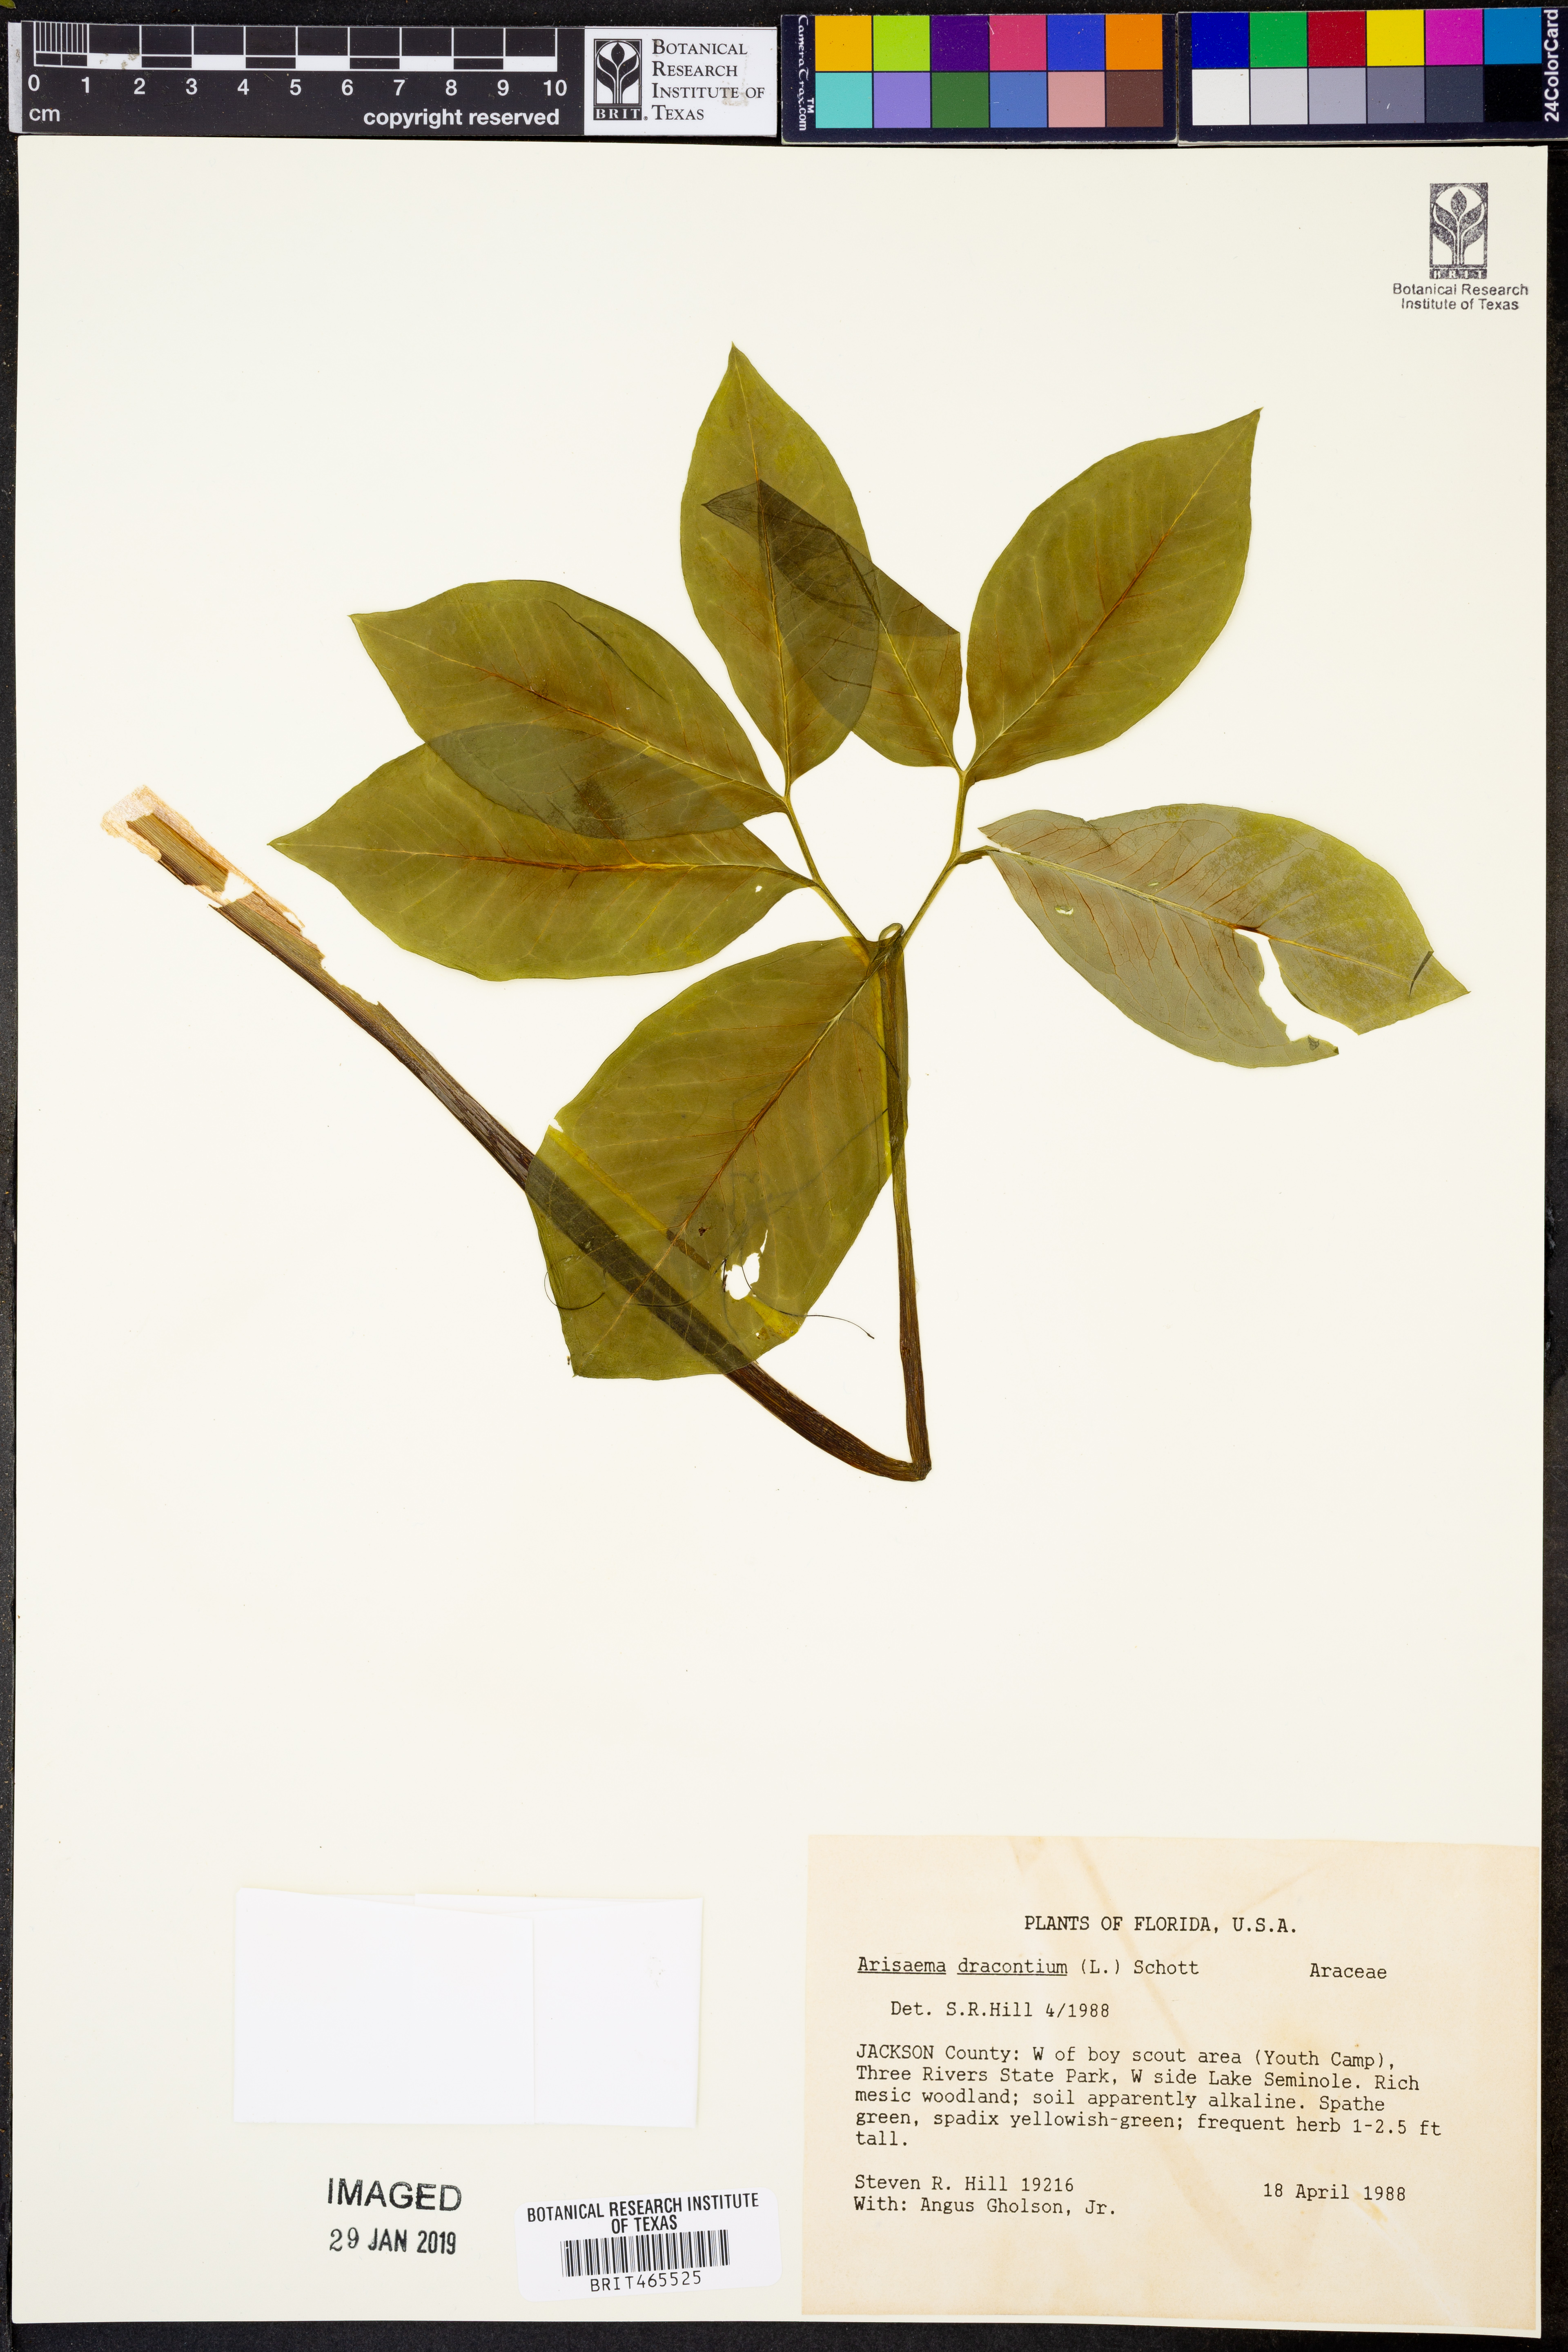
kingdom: Plantae
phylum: Tracheophyta
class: Liliopsida
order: Alismatales
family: Araceae
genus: Arisaema
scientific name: Arisaema dracontium
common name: Dragon-arum
